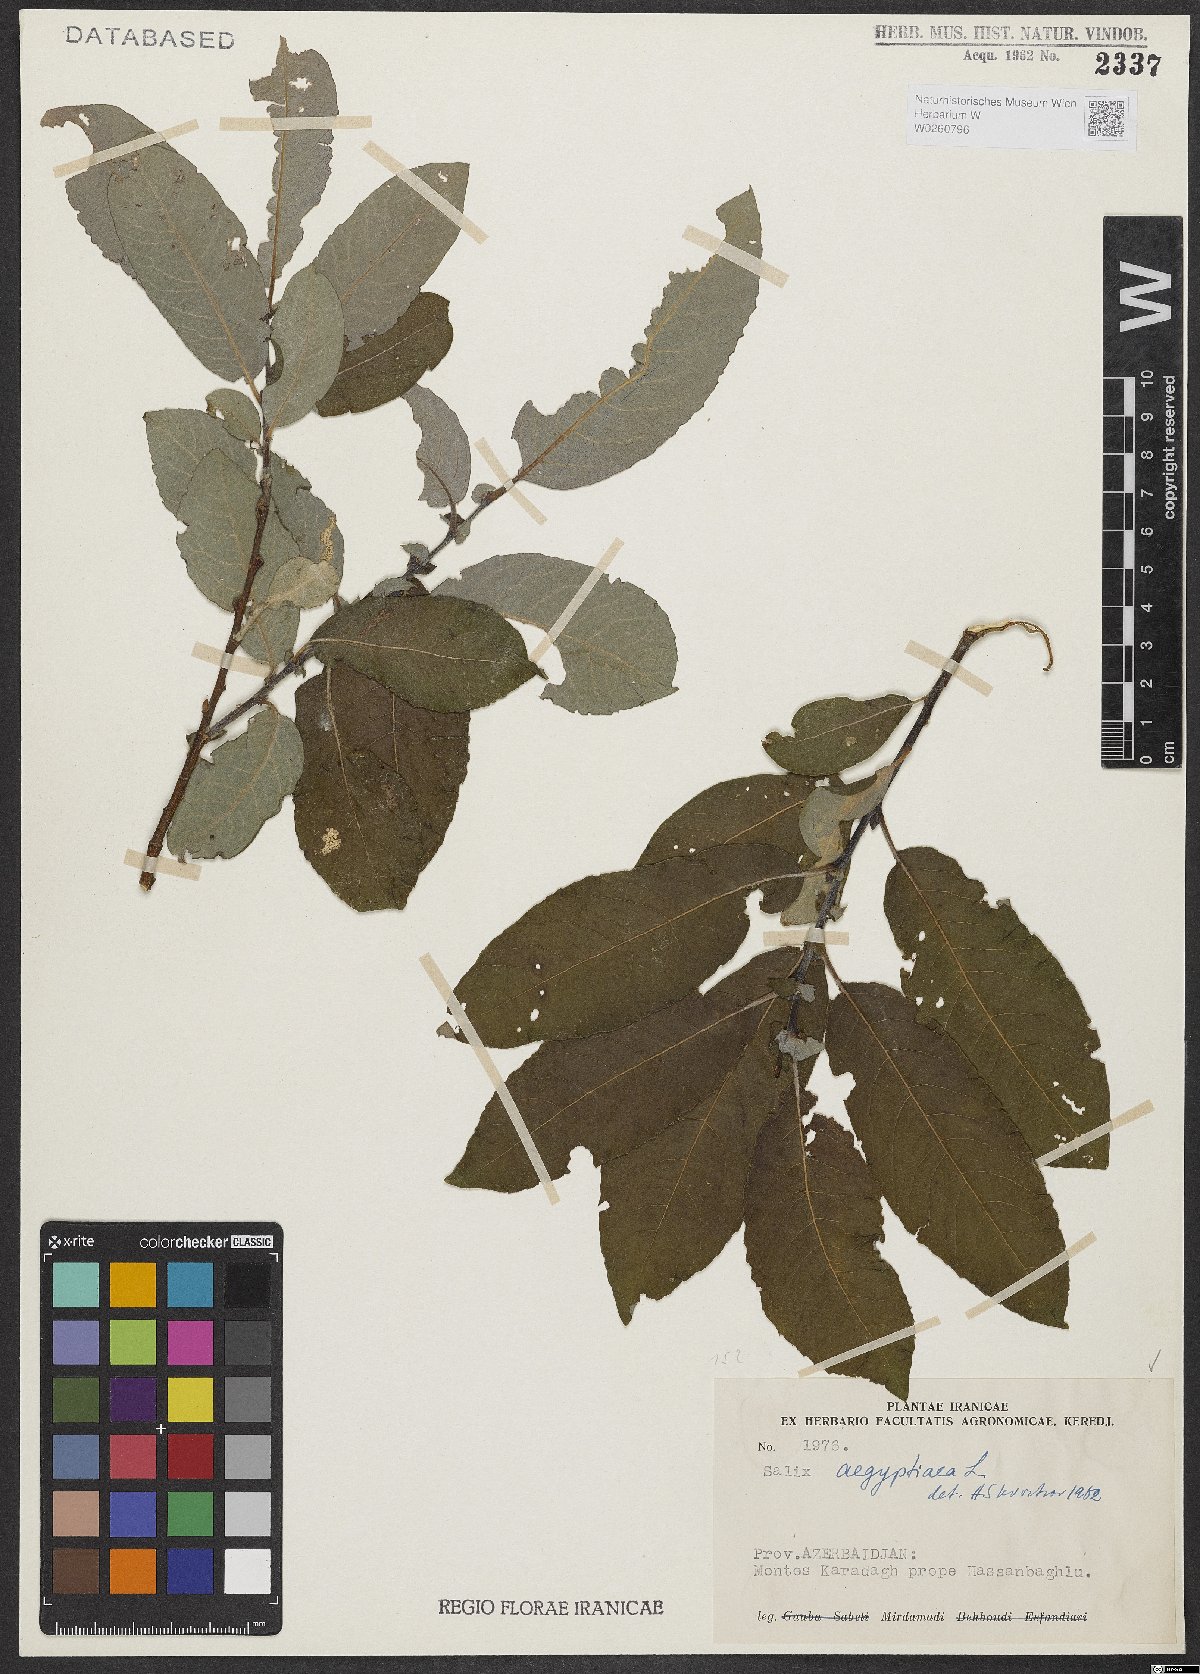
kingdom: Plantae
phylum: Tracheophyta
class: Magnoliopsida
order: Malpighiales
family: Salicaceae
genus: Salix
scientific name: Salix aegyptiaca
